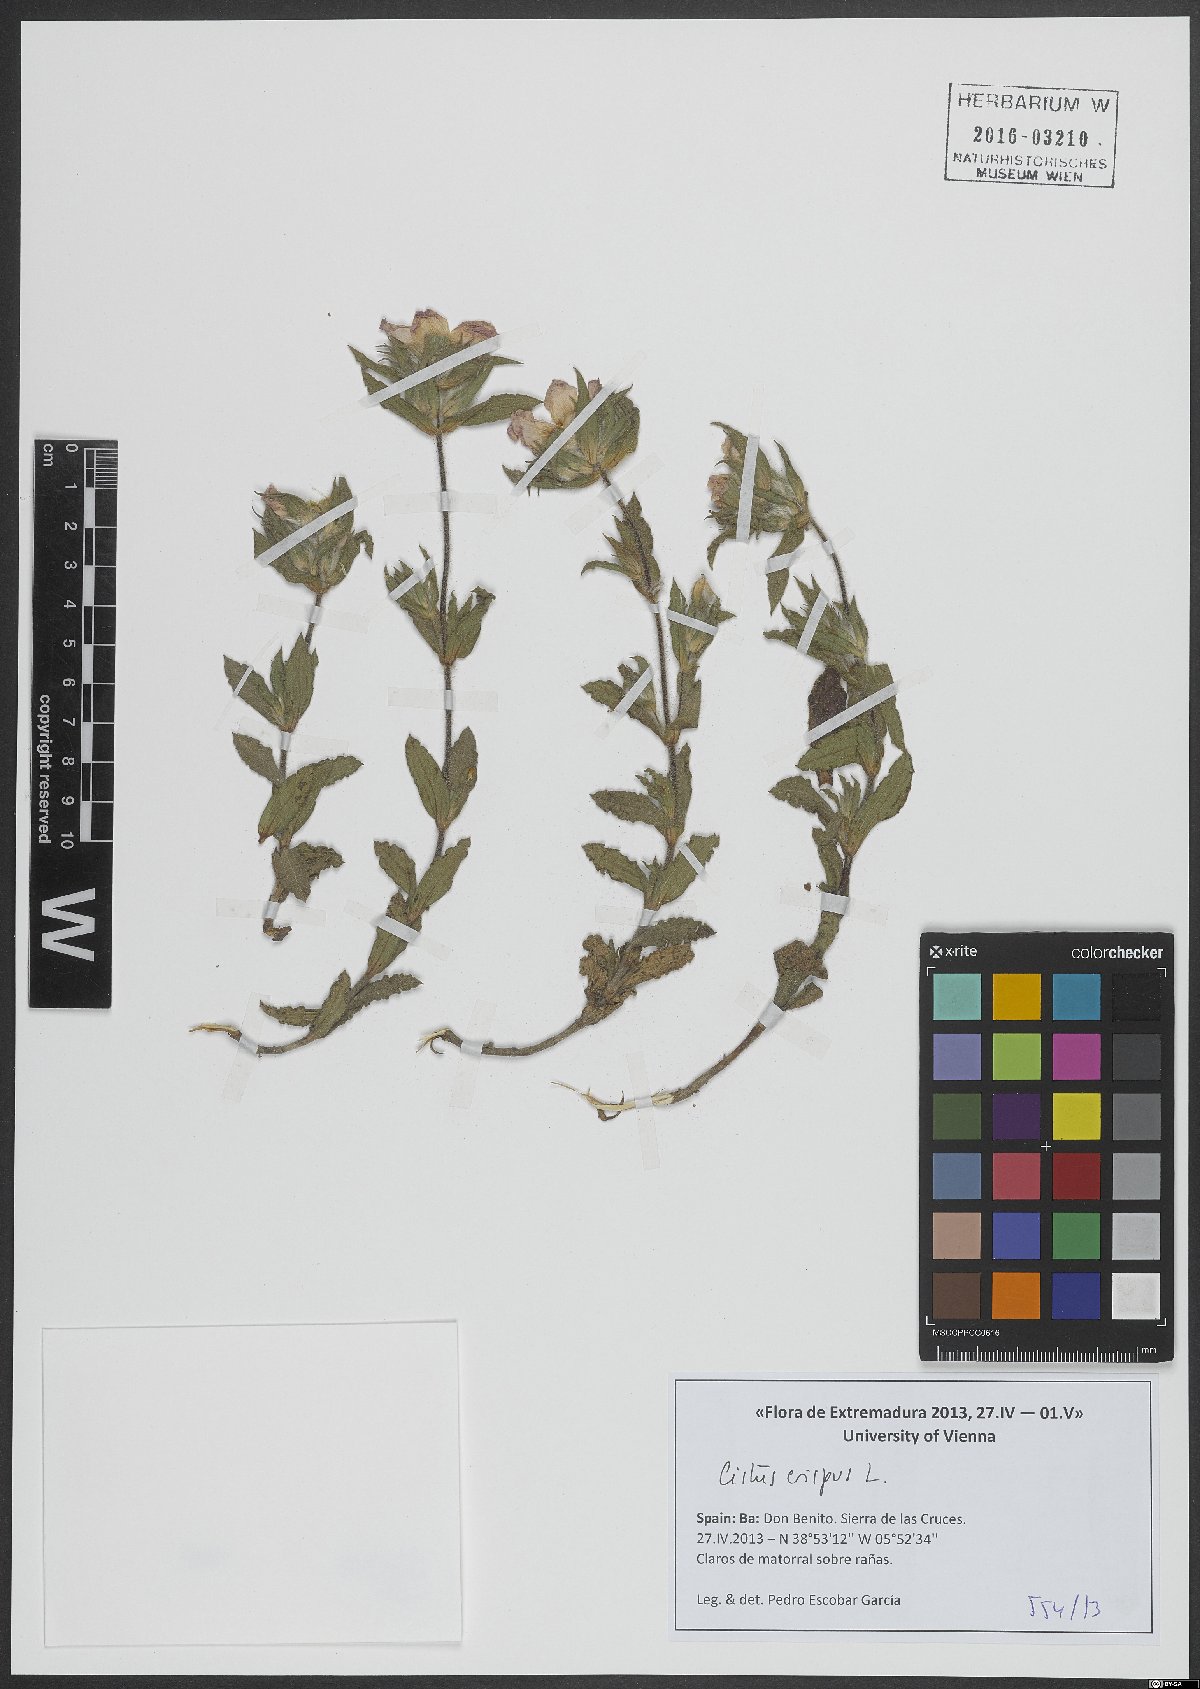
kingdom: Plantae
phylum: Tracheophyta
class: Magnoliopsida
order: Malvales
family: Cistaceae
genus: Cistus
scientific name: Cistus crispus
